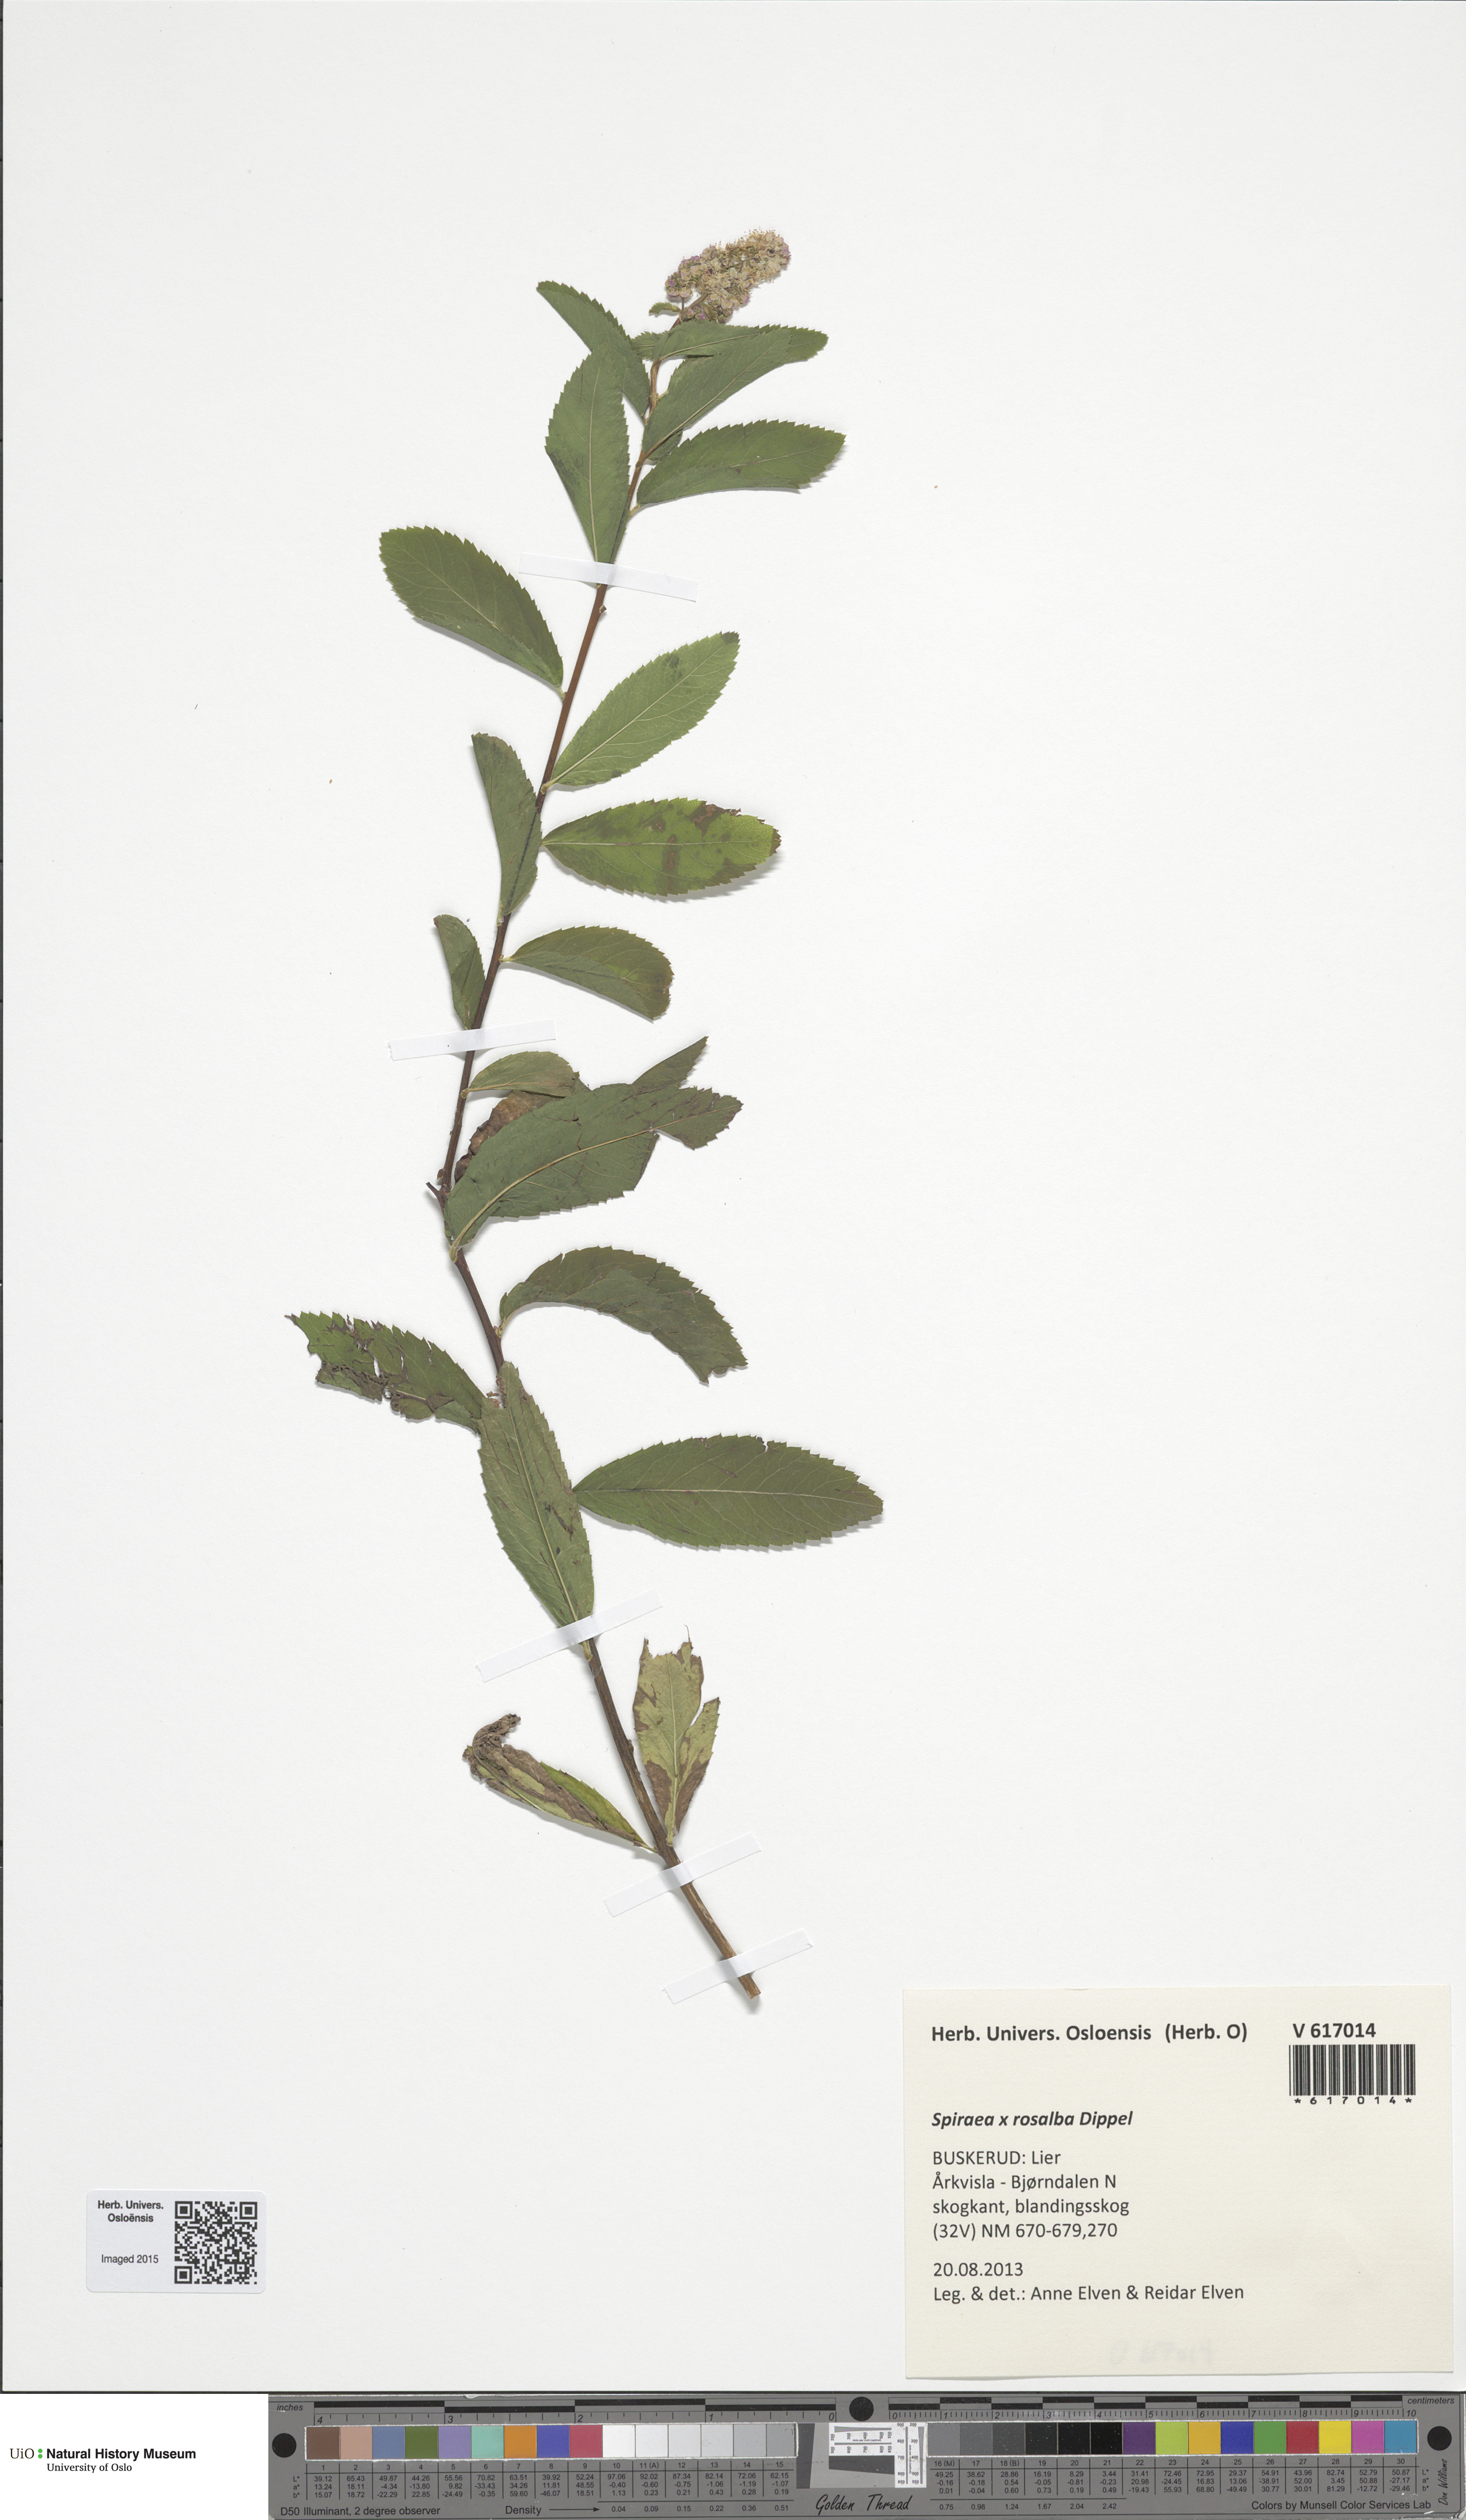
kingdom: Plantae
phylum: Tracheophyta
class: Magnoliopsida
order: Rosales
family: Rosaceae
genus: Spiraea
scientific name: Spiraea rosalba
